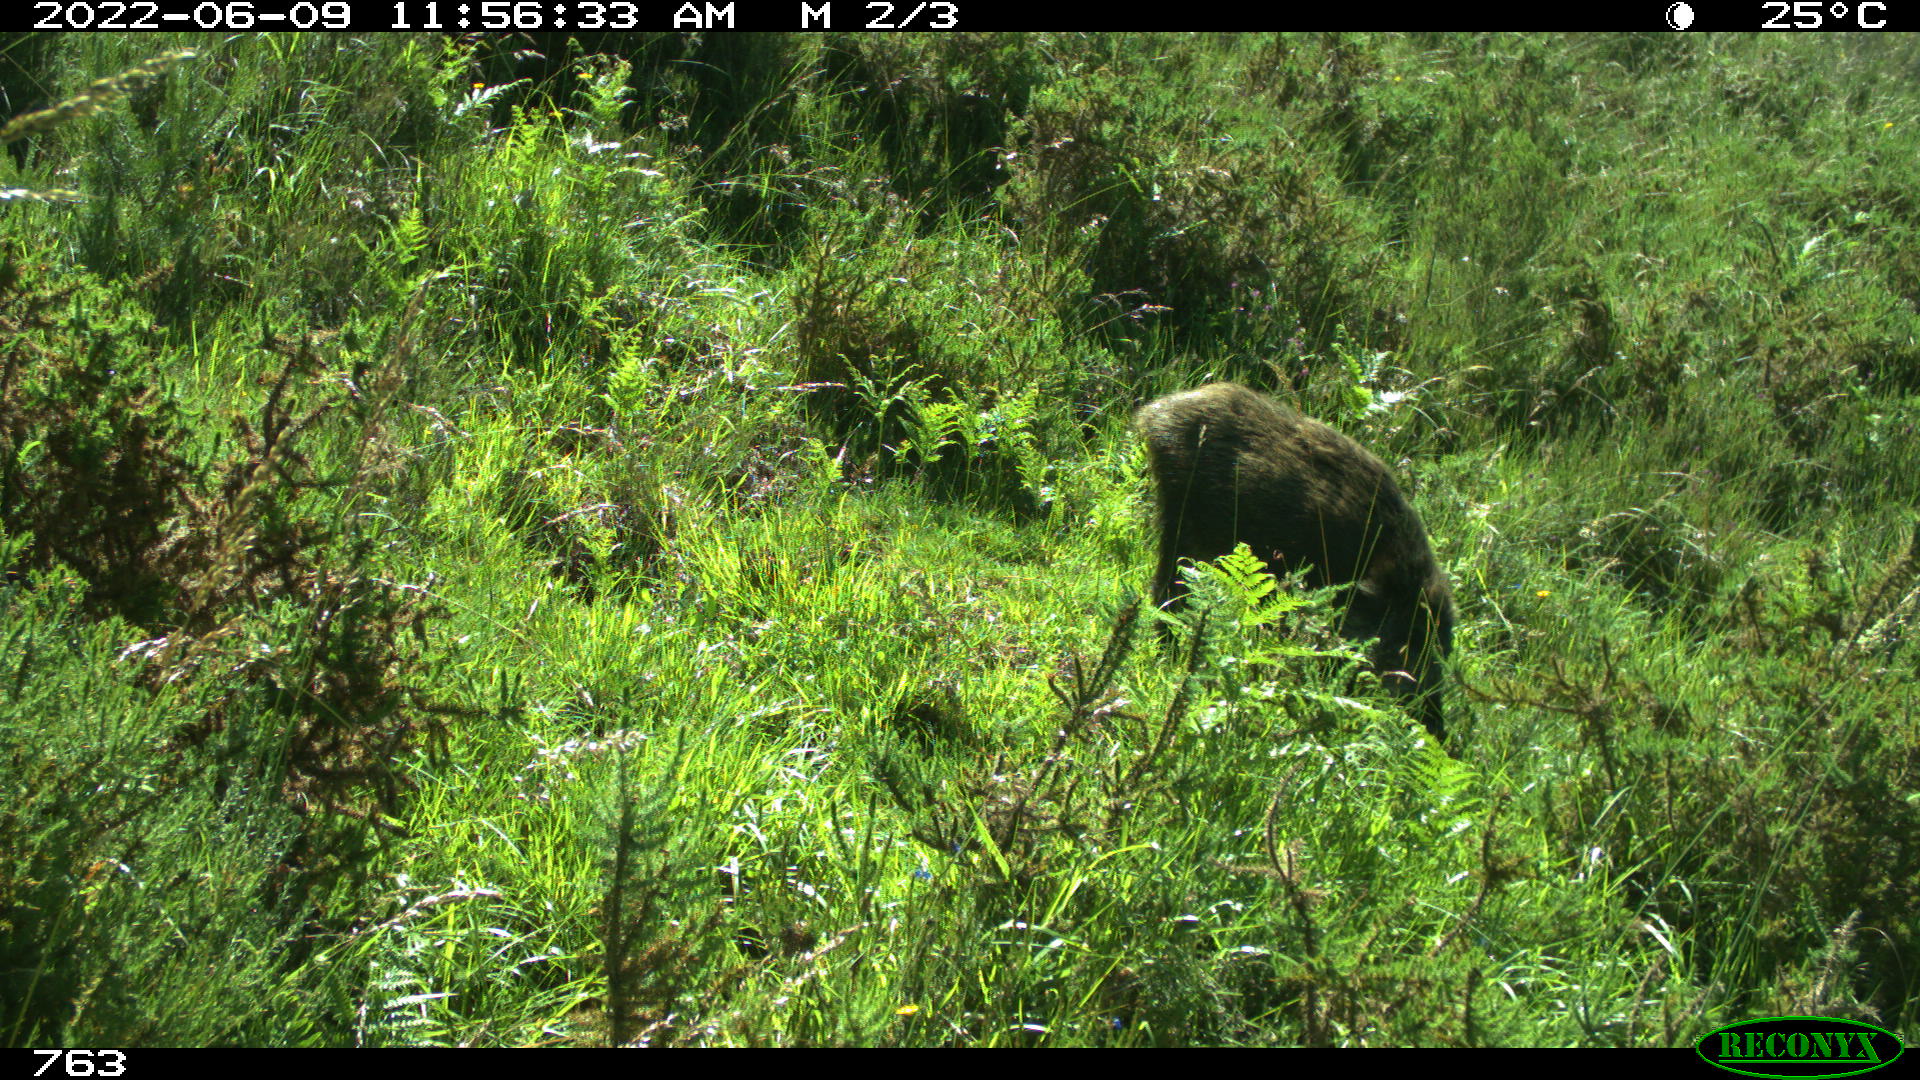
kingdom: Animalia
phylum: Chordata
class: Mammalia
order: Artiodactyla
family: Suidae
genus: Sus
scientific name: Sus scrofa
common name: Wild boar
